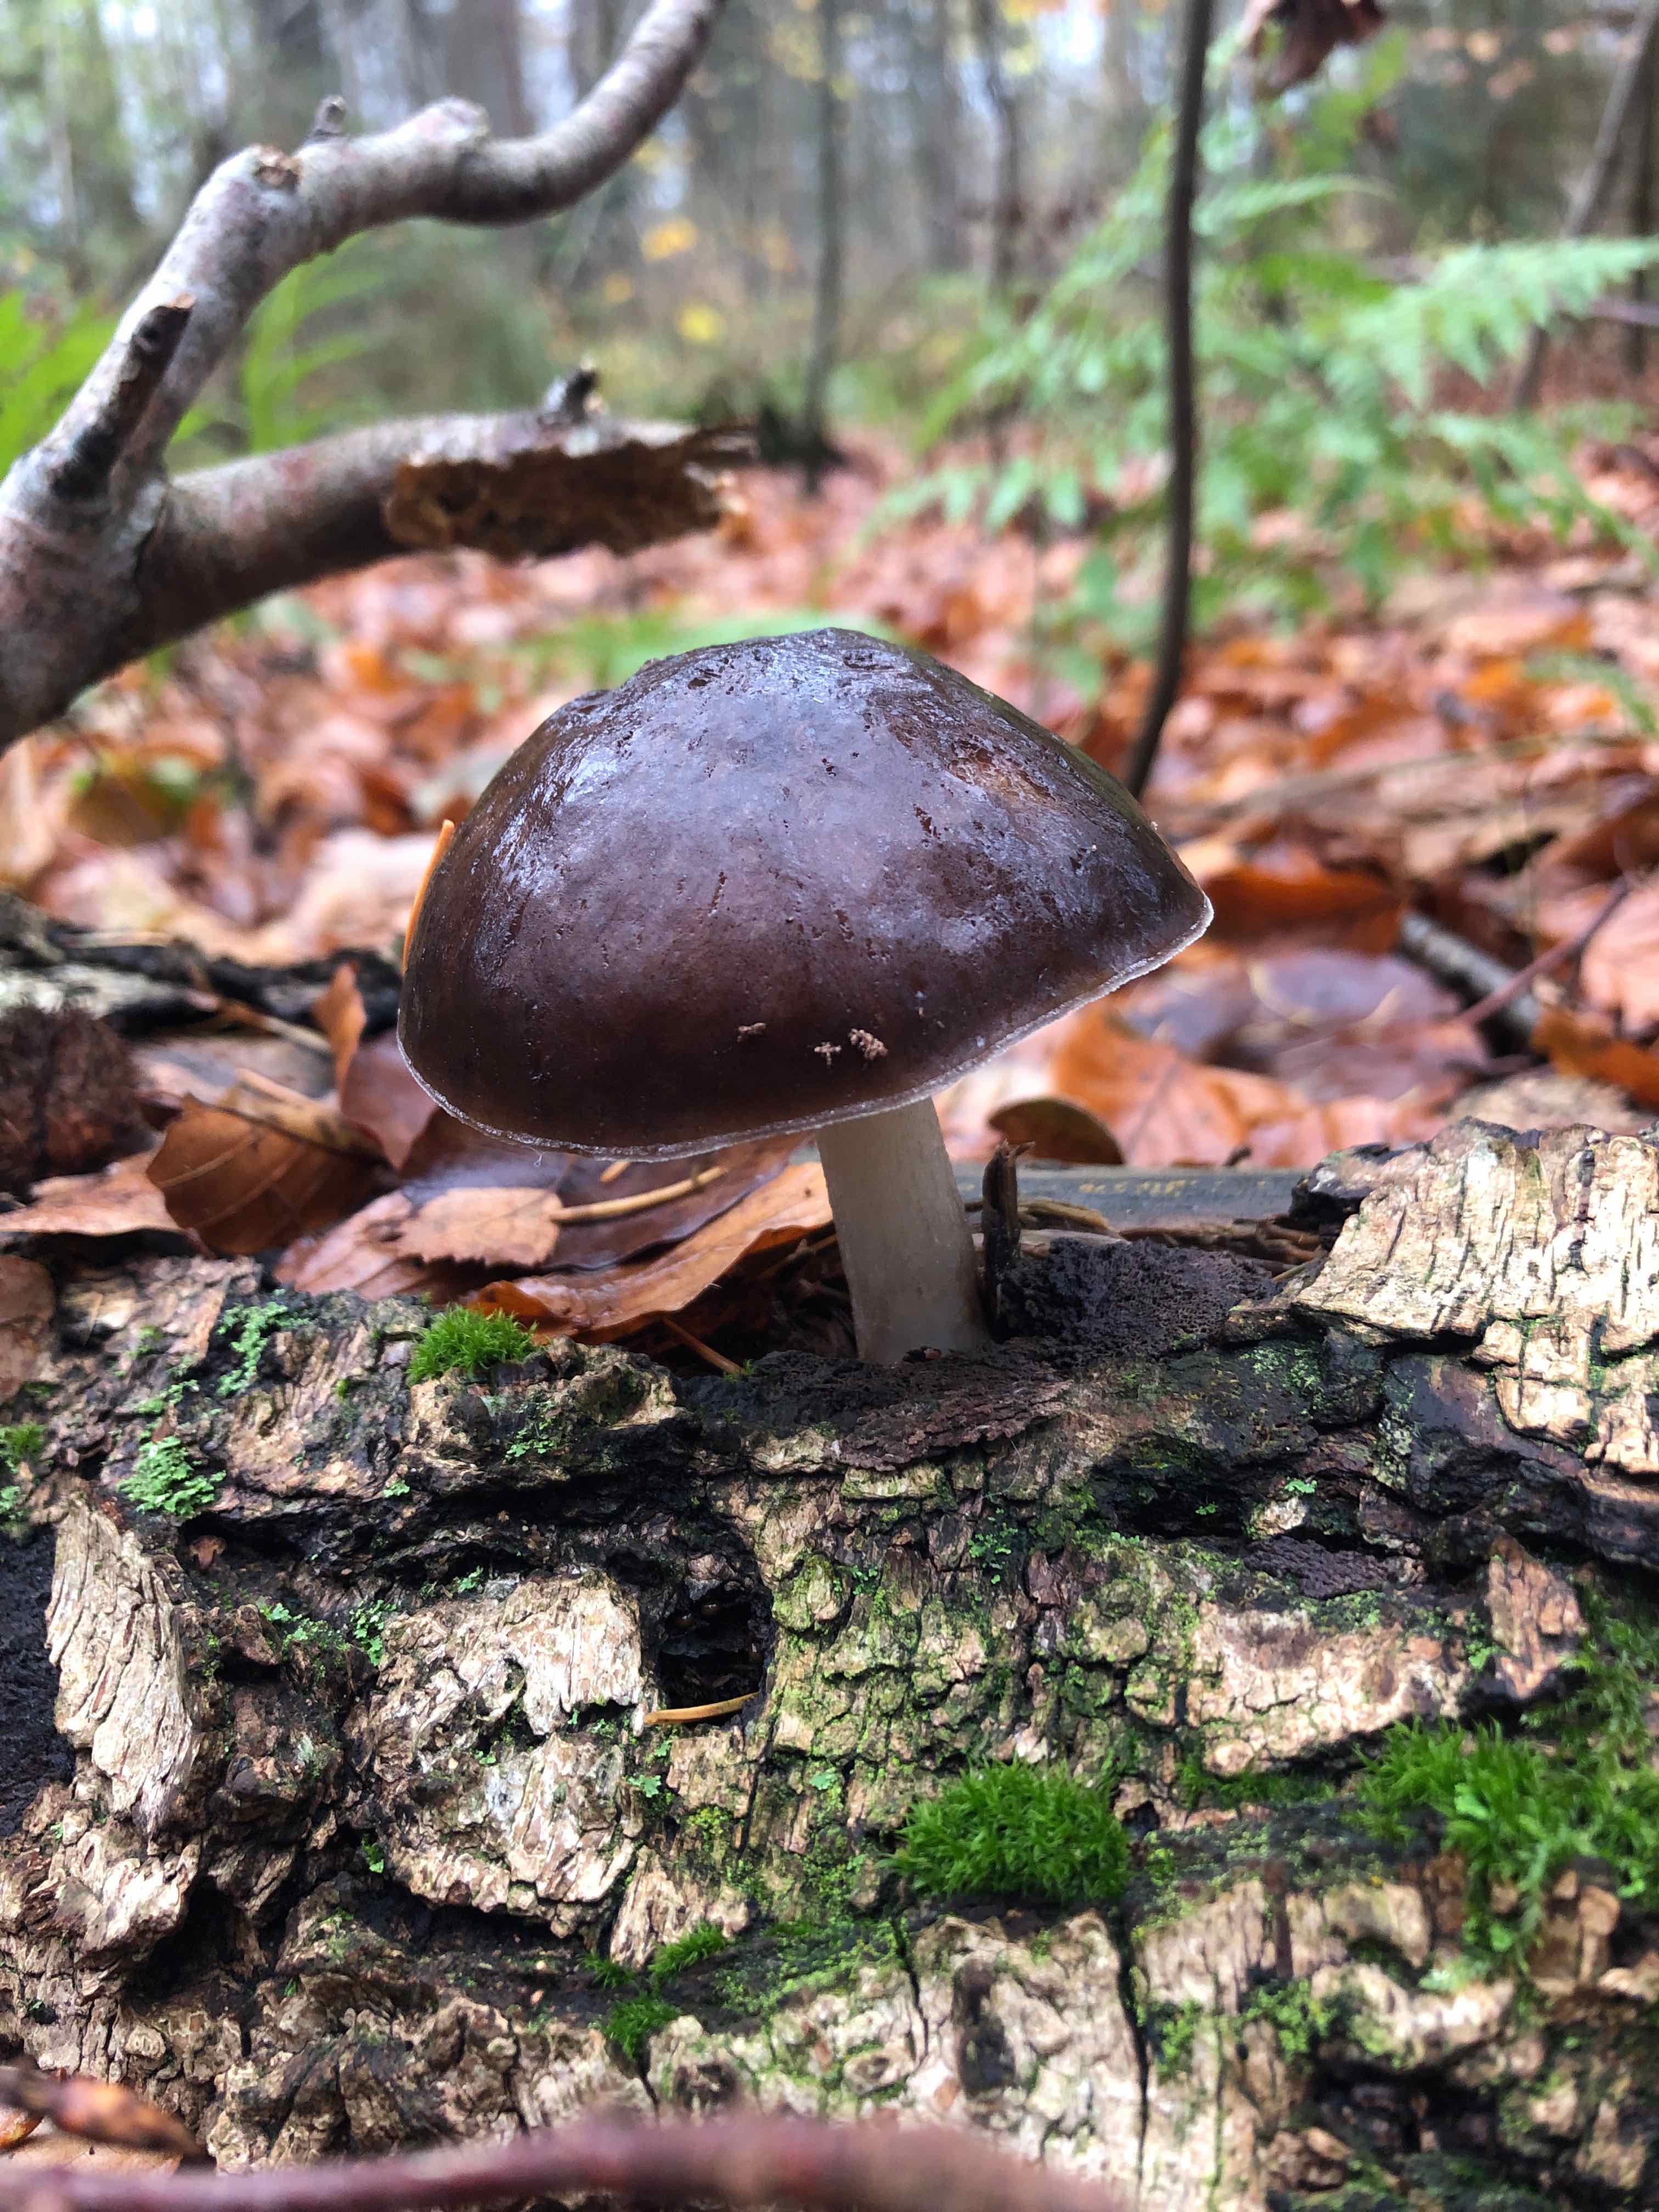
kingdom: Fungi
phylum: Basidiomycota
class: Agaricomycetes
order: Agaricales
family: Pluteaceae
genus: Pluteus
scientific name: Pluteus cervinus
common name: sodfarvet skærmhat
